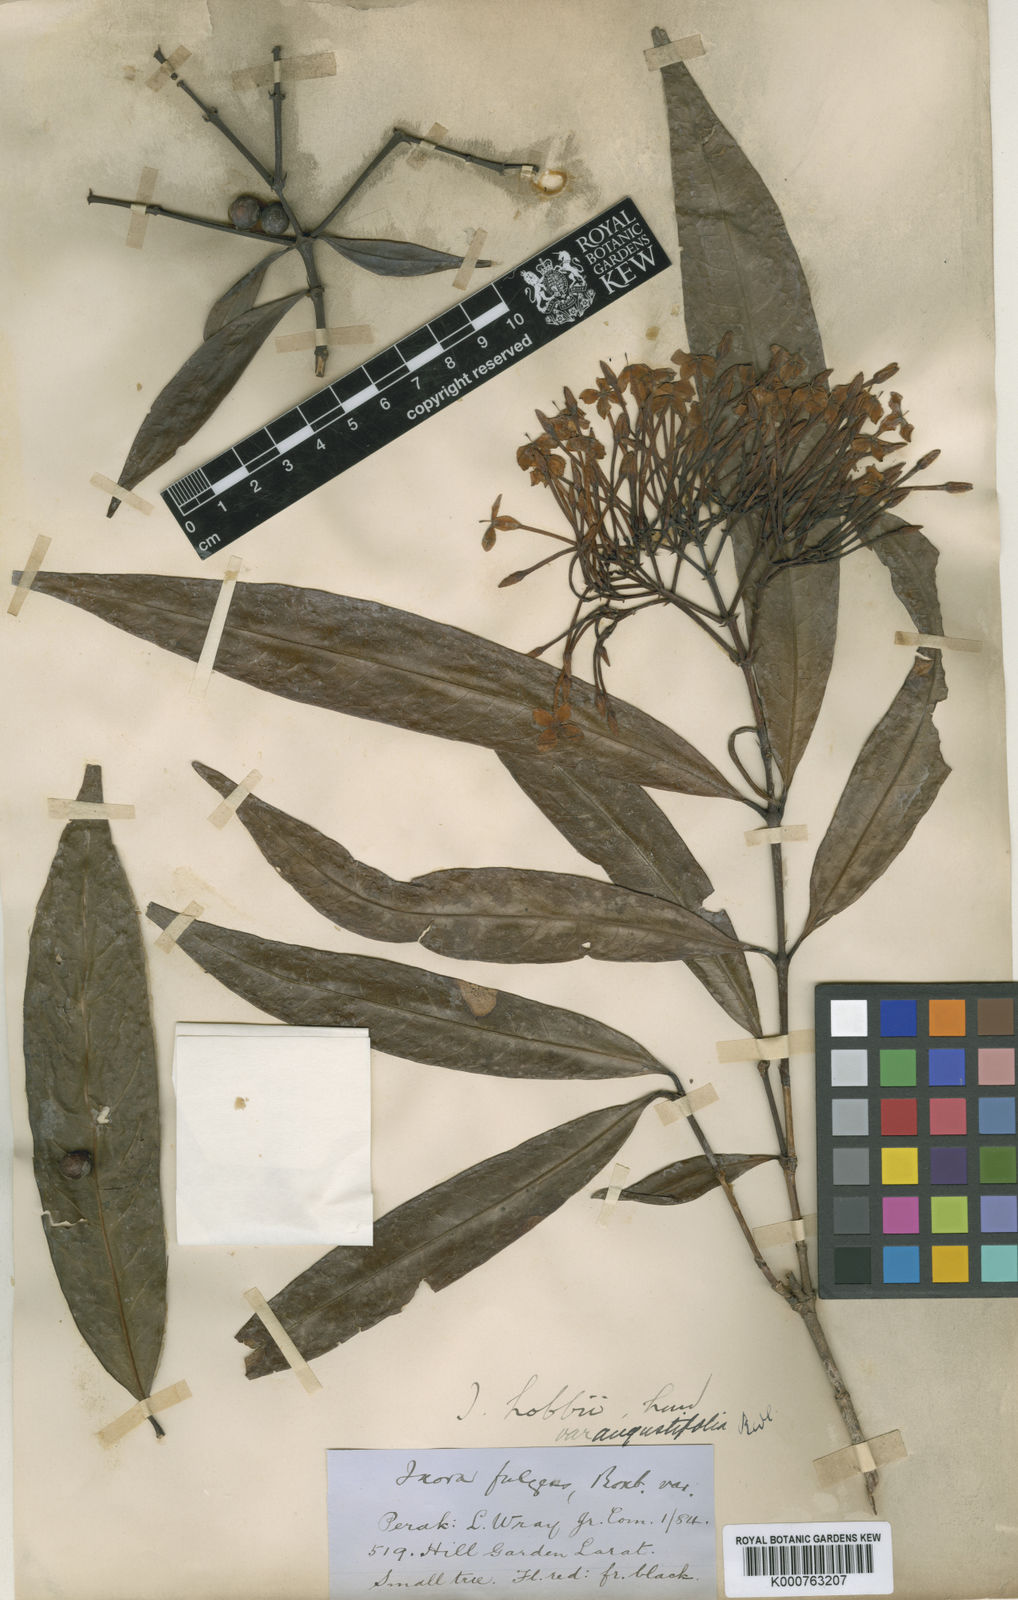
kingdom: Plantae
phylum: Tracheophyta
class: Magnoliopsida
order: Gentianales
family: Rubiaceae
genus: Ixora
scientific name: Ixora
